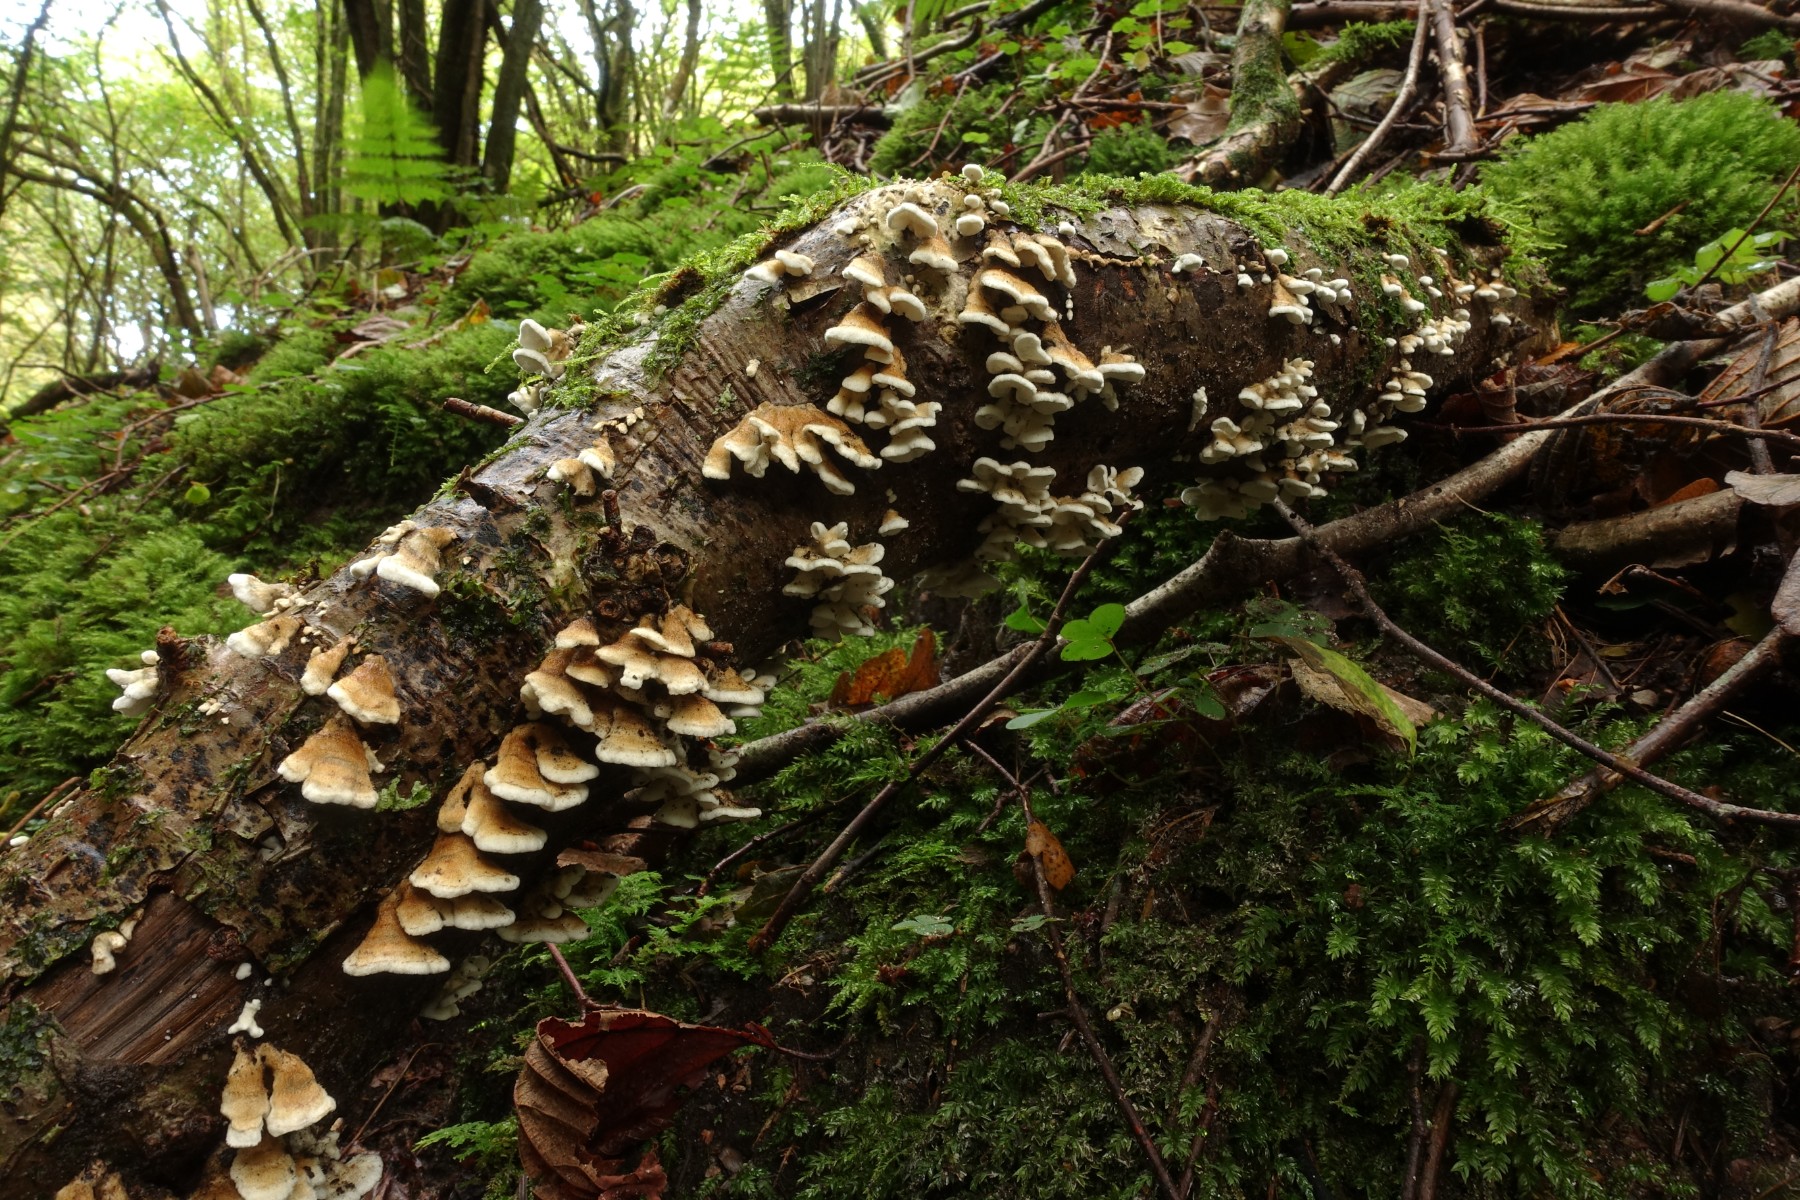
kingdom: Fungi
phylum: Basidiomycota
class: Agaricomycetes
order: Amylocorticiales
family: Amylocorticiaceae
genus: Plicaturopsis
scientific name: Plicaturopsis crispa
